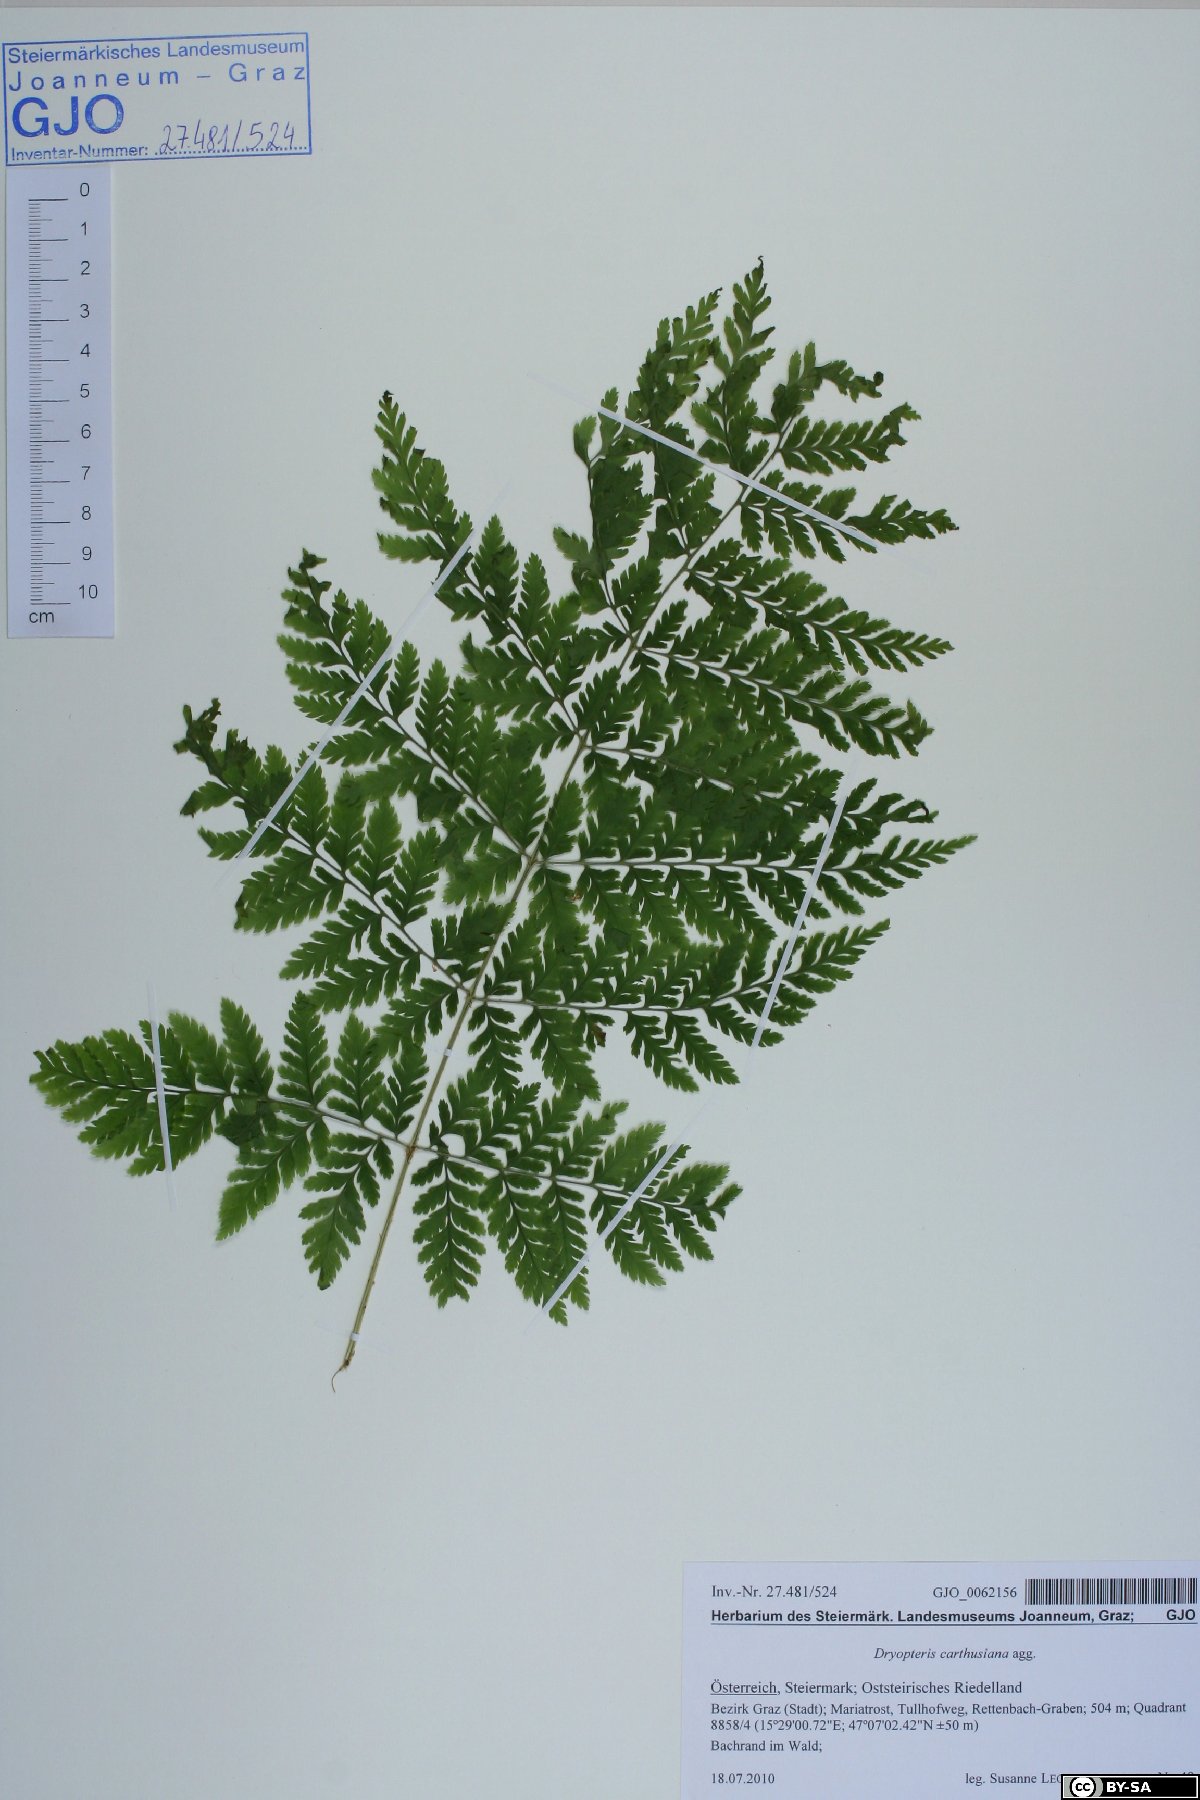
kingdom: Plantae
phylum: Tracheophyta
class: Polypodiopsida
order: Polypodiales
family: Dryopteridaceae
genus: Dryopteris
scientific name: Dryopteris carthusiana
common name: Narrow buckler-fern
